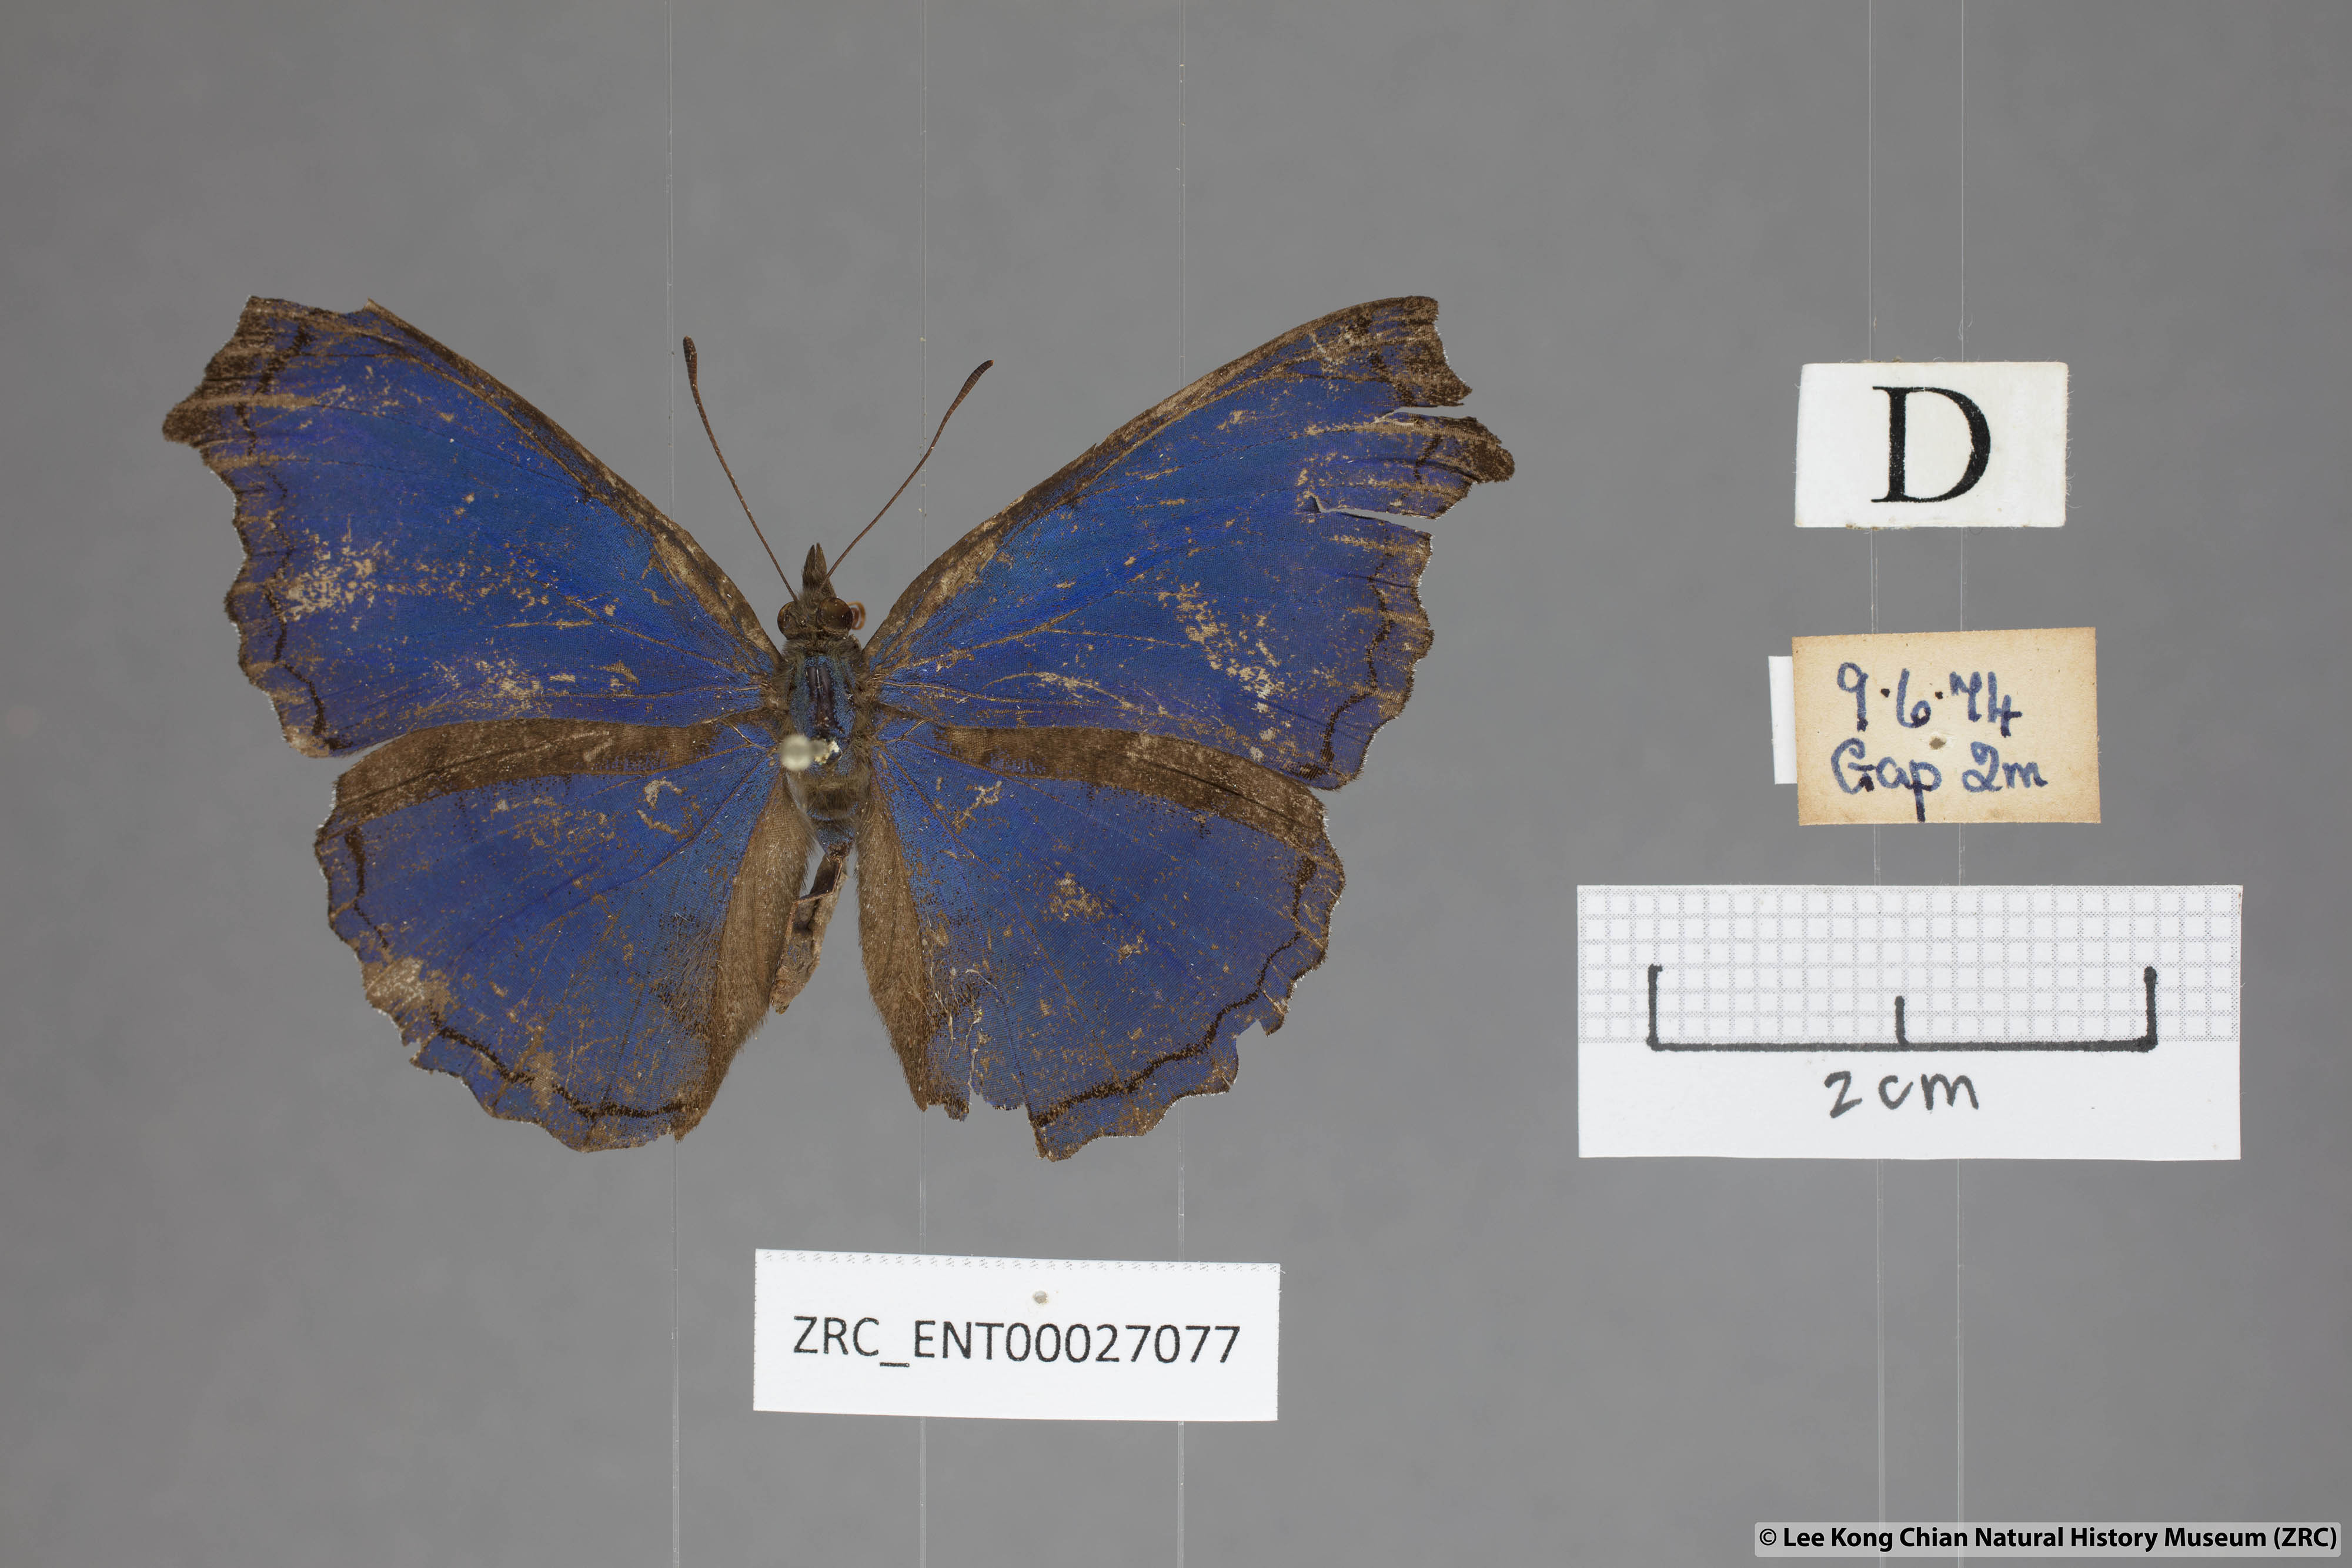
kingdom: Animalia
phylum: Arthropoda
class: Insecta
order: Lepidoptera
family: Nymphalidae
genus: Laringa
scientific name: Laringa castelnaui
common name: Blue dandy
